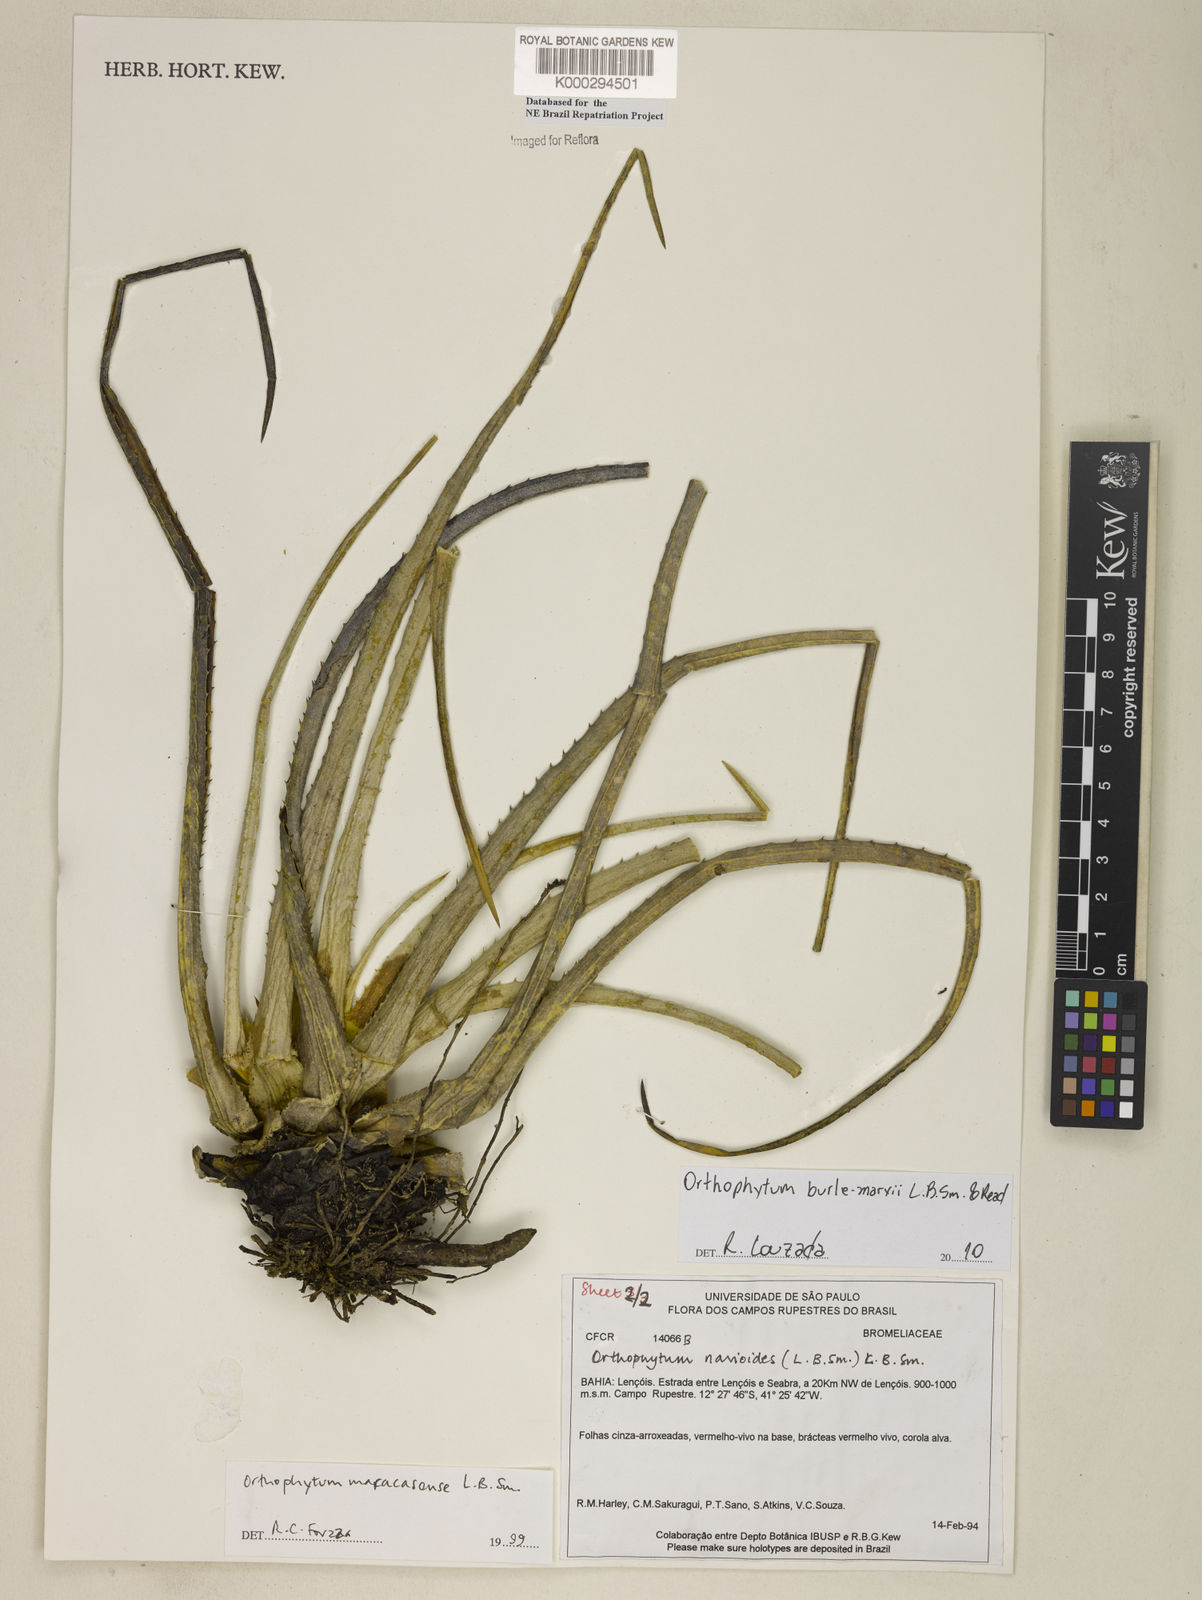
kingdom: Plantae
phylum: Tracheophyta
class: Liliopsida
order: Poales
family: Bromeliaceae
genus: Sincoraea
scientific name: Sincoraea navioides
